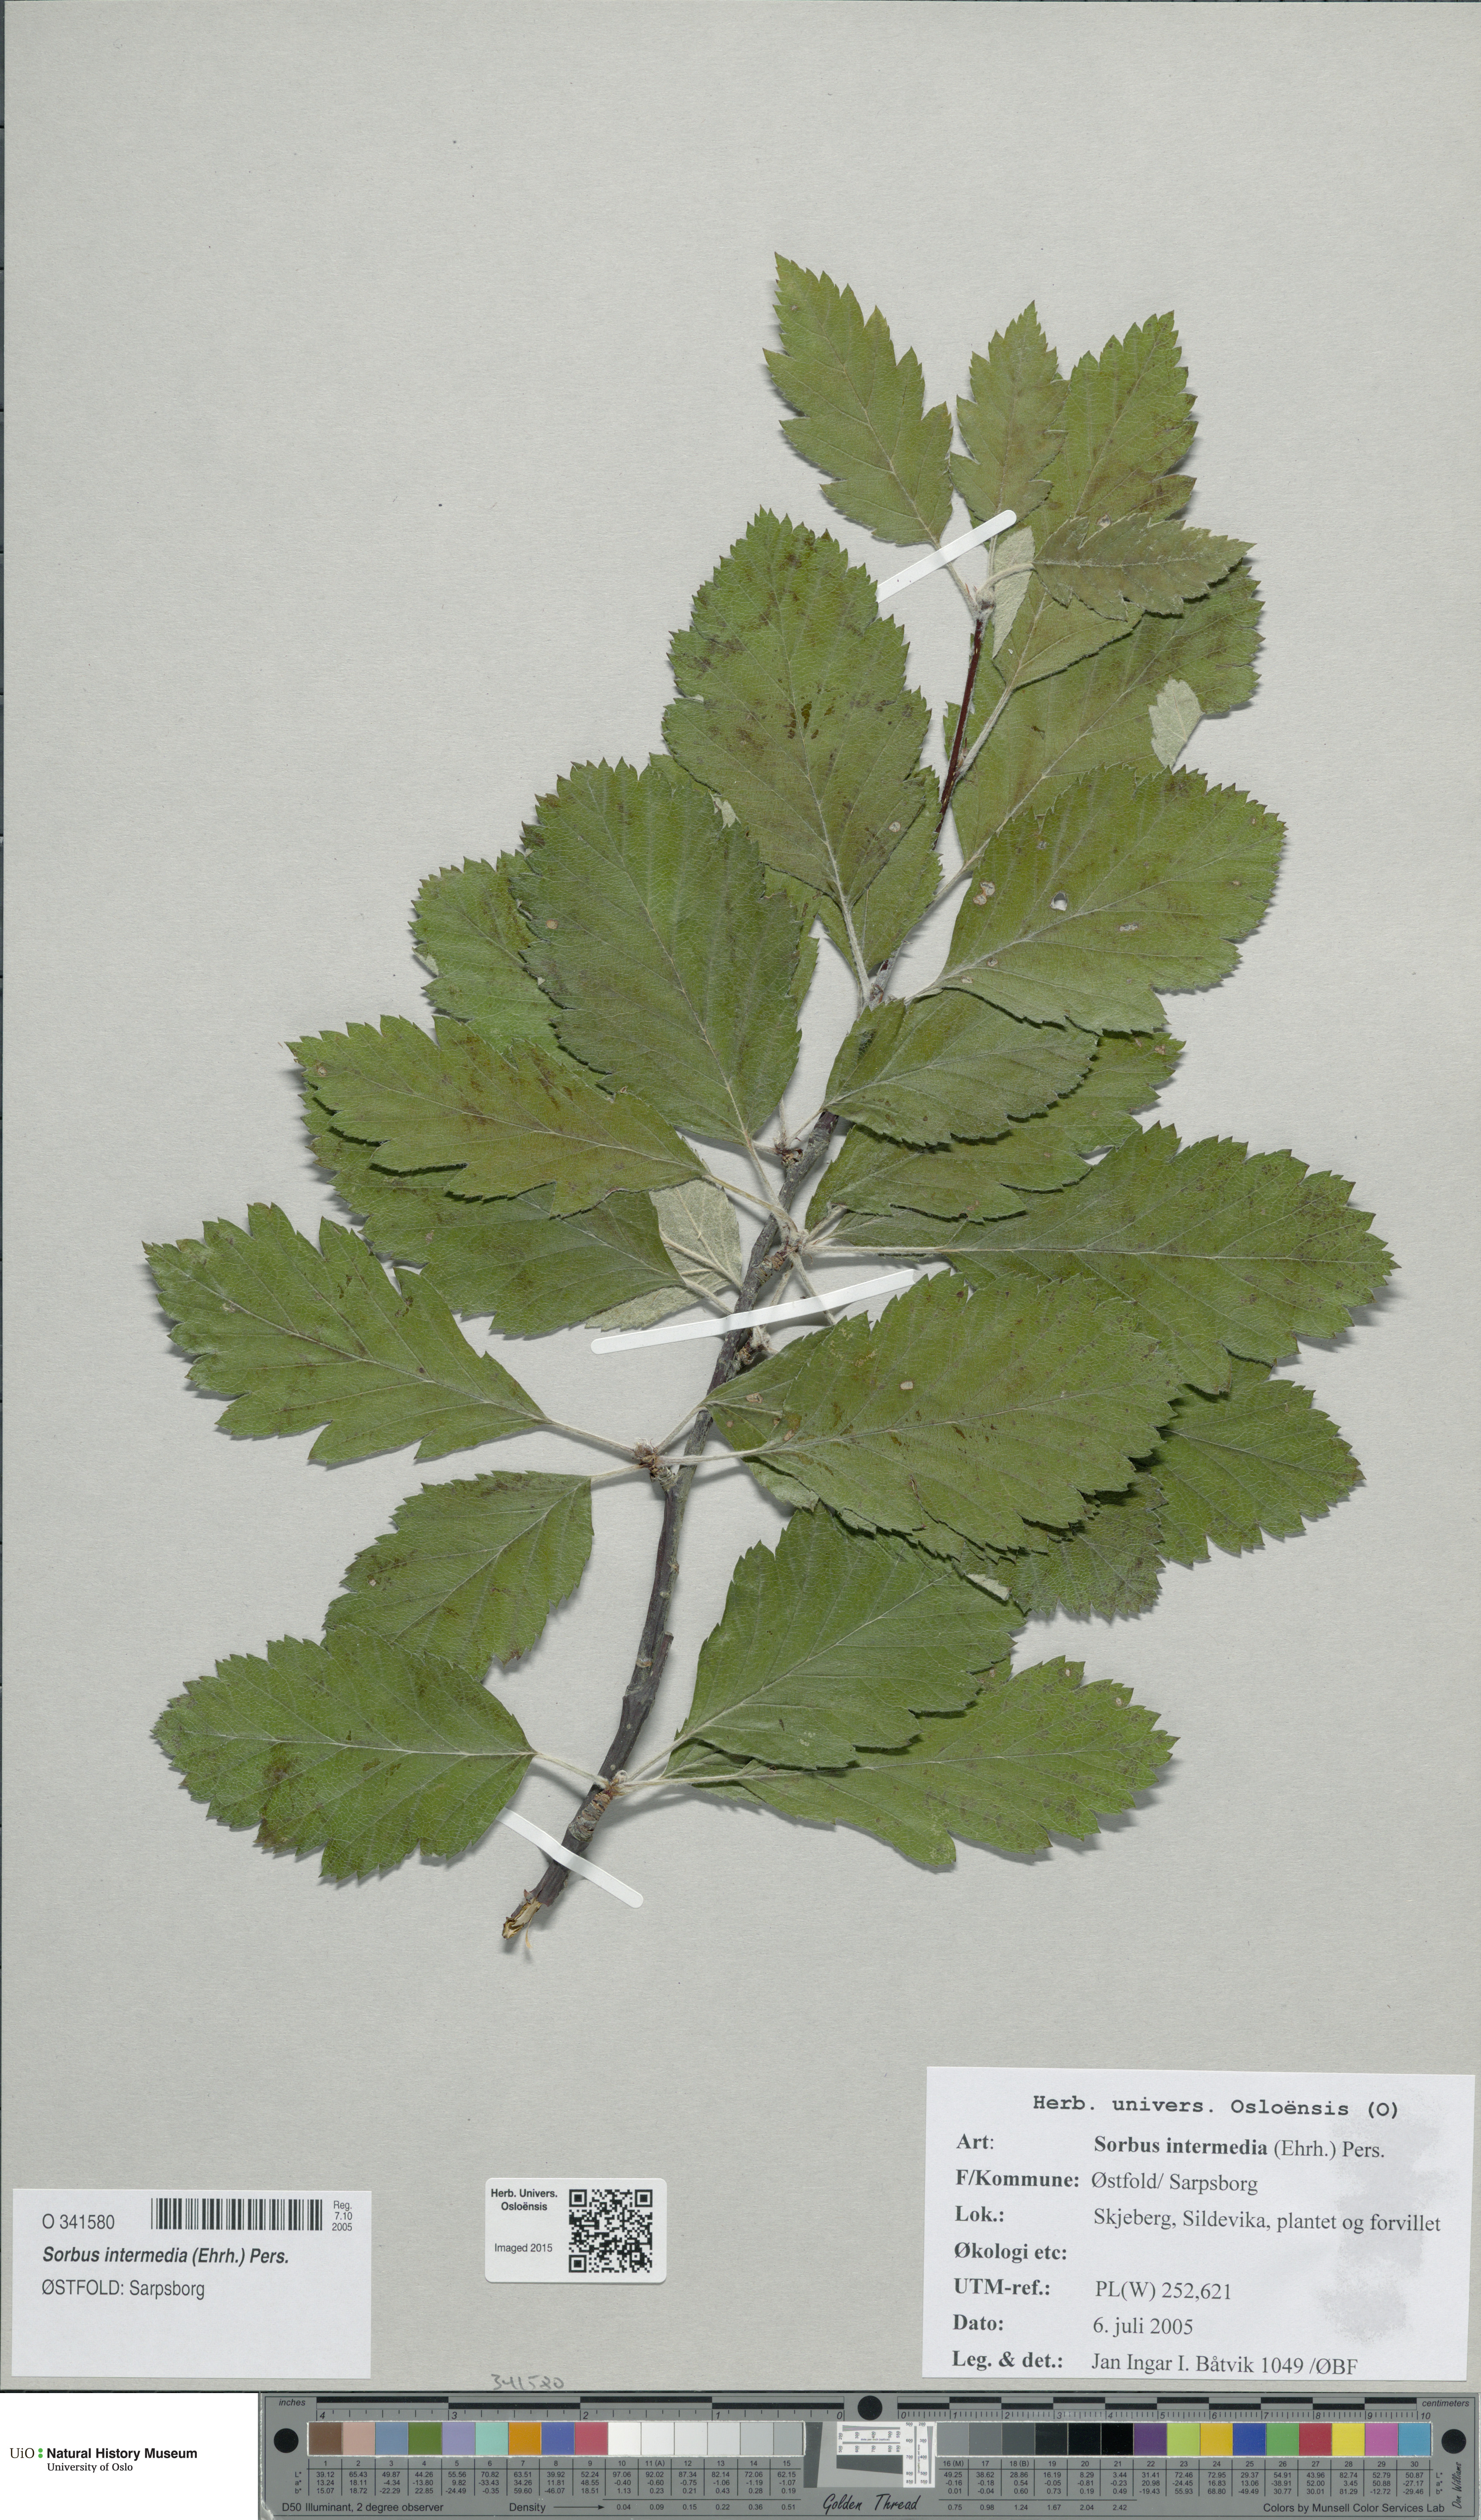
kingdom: Plantae
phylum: Tracheophyta
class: Magnoliopsida
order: Rosales
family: Rosaceae
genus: Scandosorbus
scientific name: Scandosorbus intermedia
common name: Swedish whitebeam
